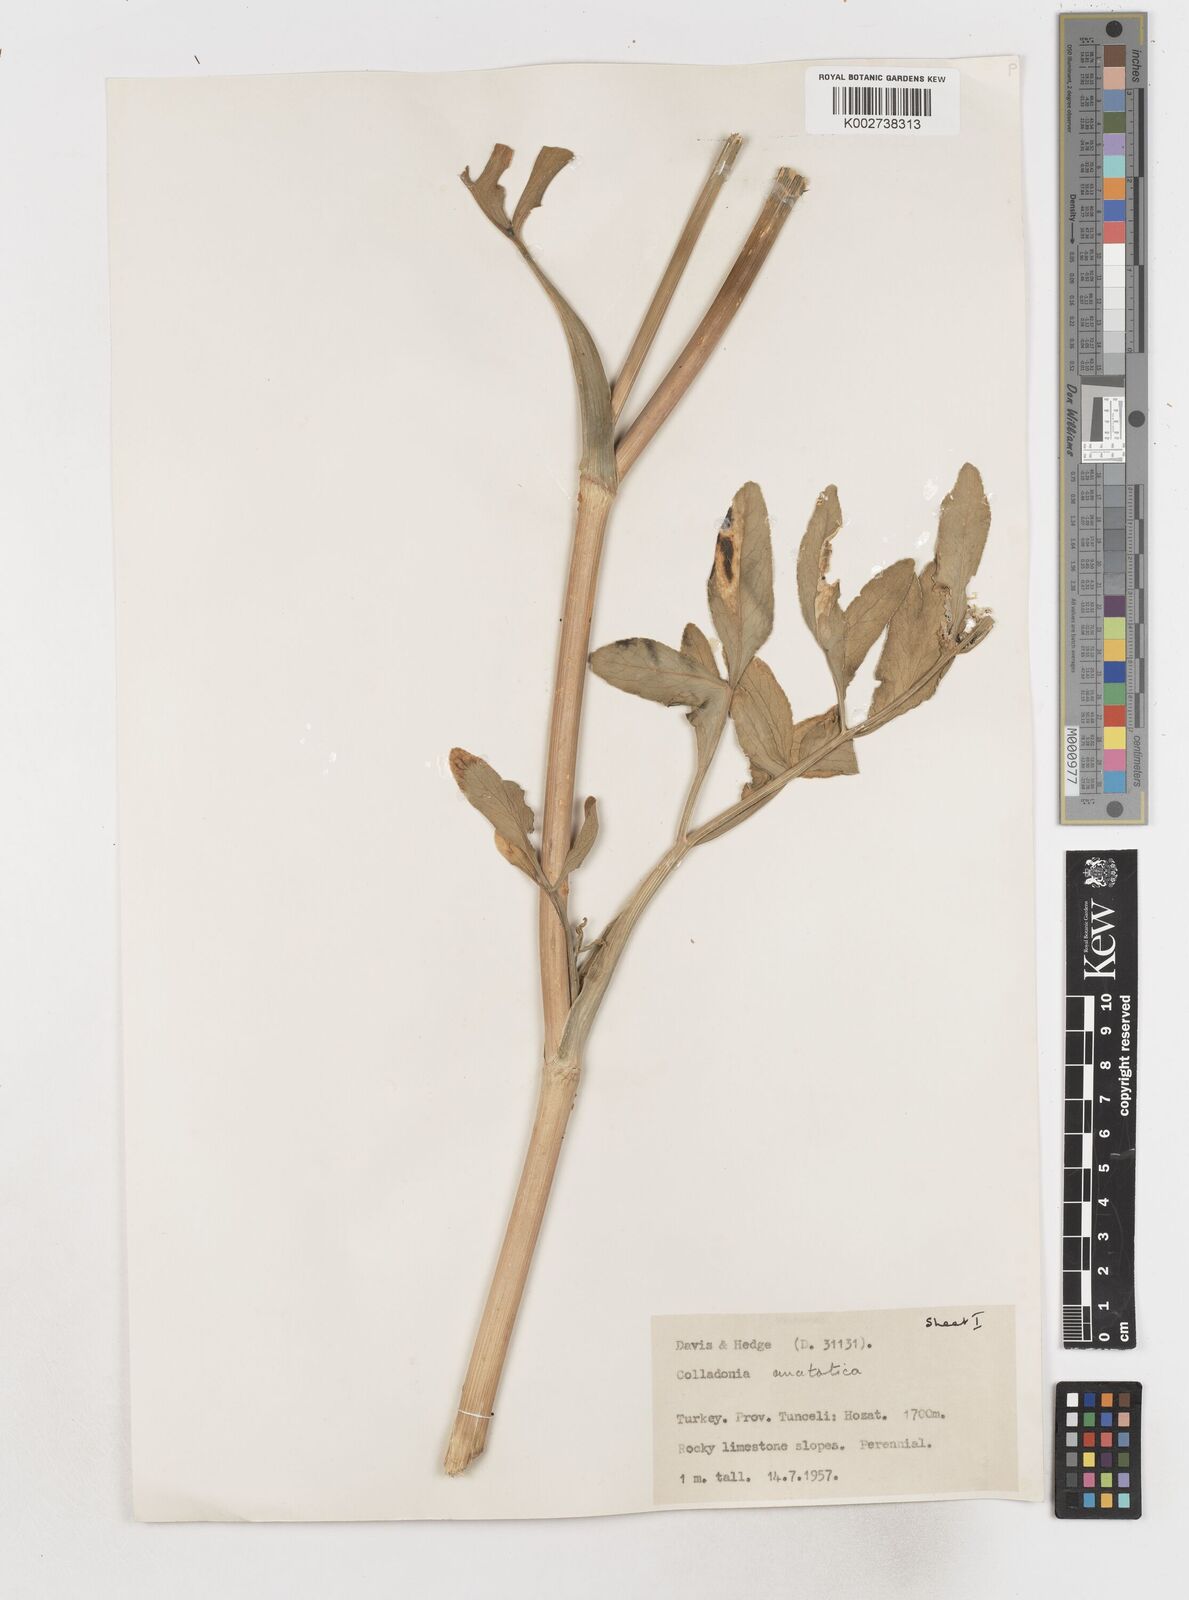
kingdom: Plantae
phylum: Tracheophyta
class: Magnoliopsida
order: Apiales
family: Apiaceae
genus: Heptaptera
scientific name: Heptaptera anatolica
